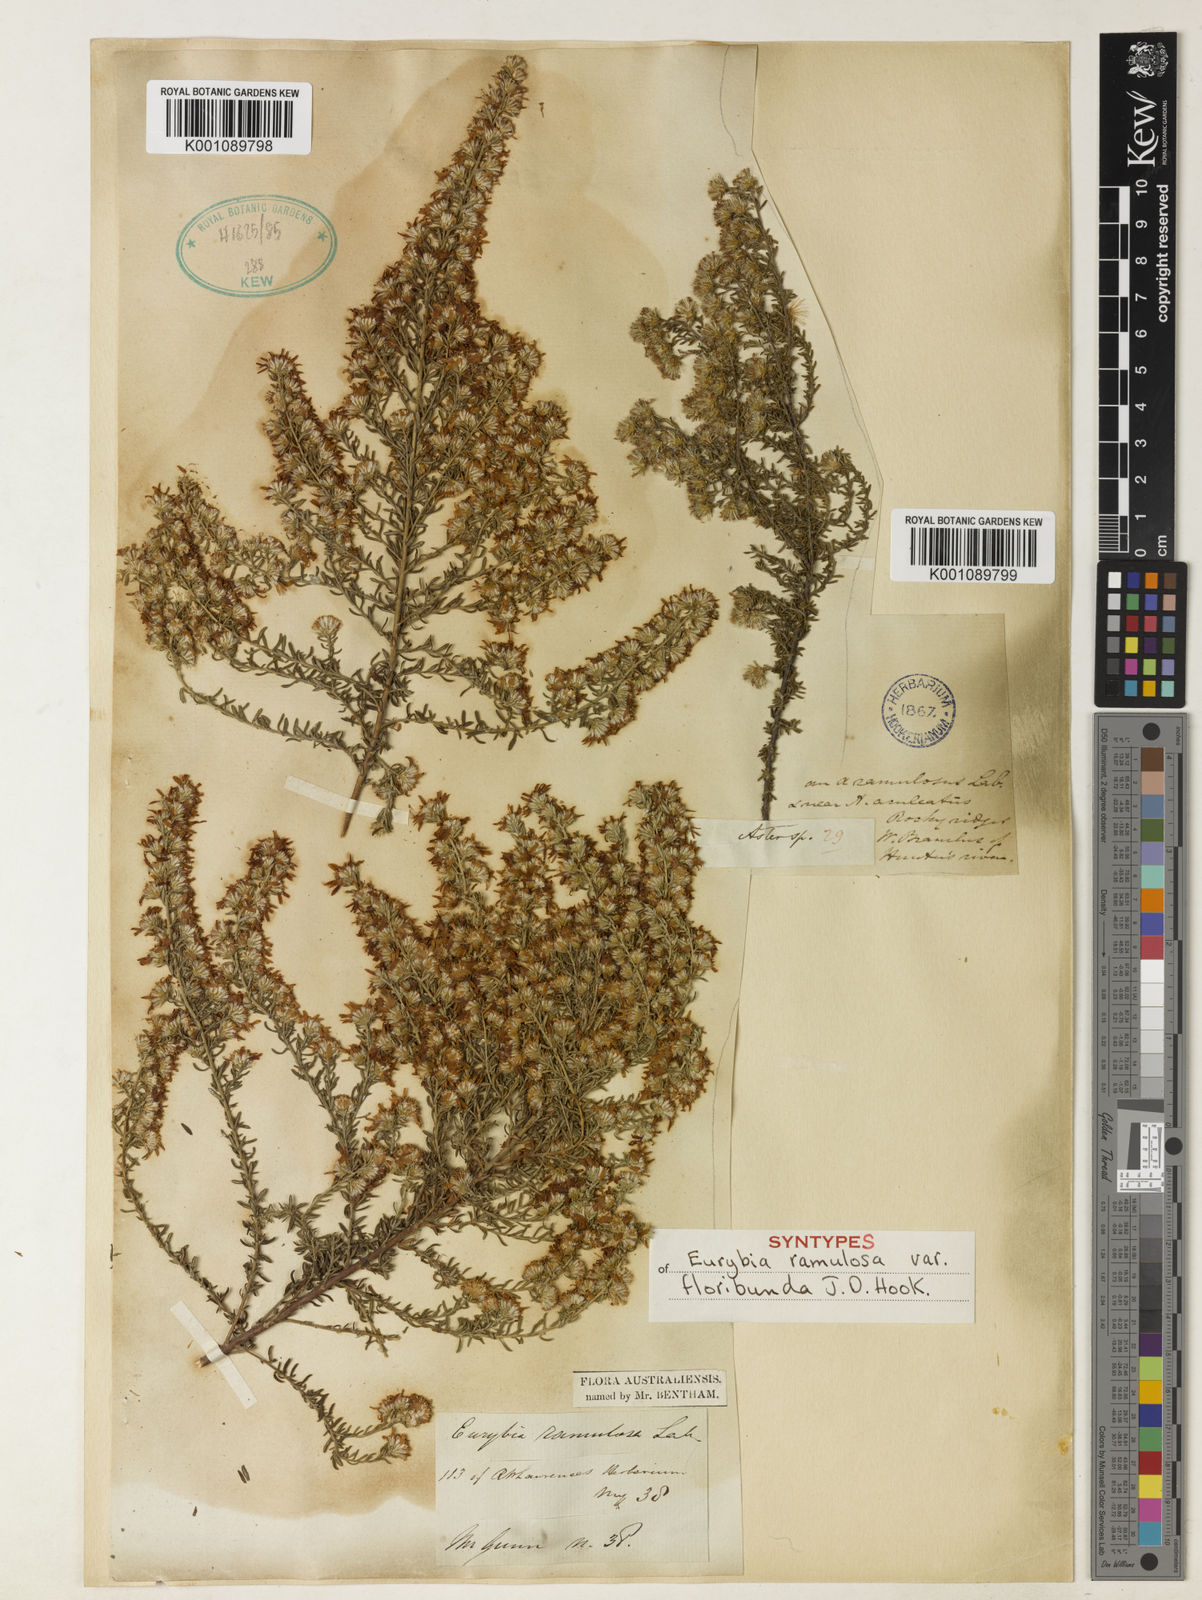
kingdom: Plantae
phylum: Tracheophyta
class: Magnoliopsida
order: Asterales
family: Asteraceae
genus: Olearia
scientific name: Olearia ramulosa
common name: Twiggy daisybush
